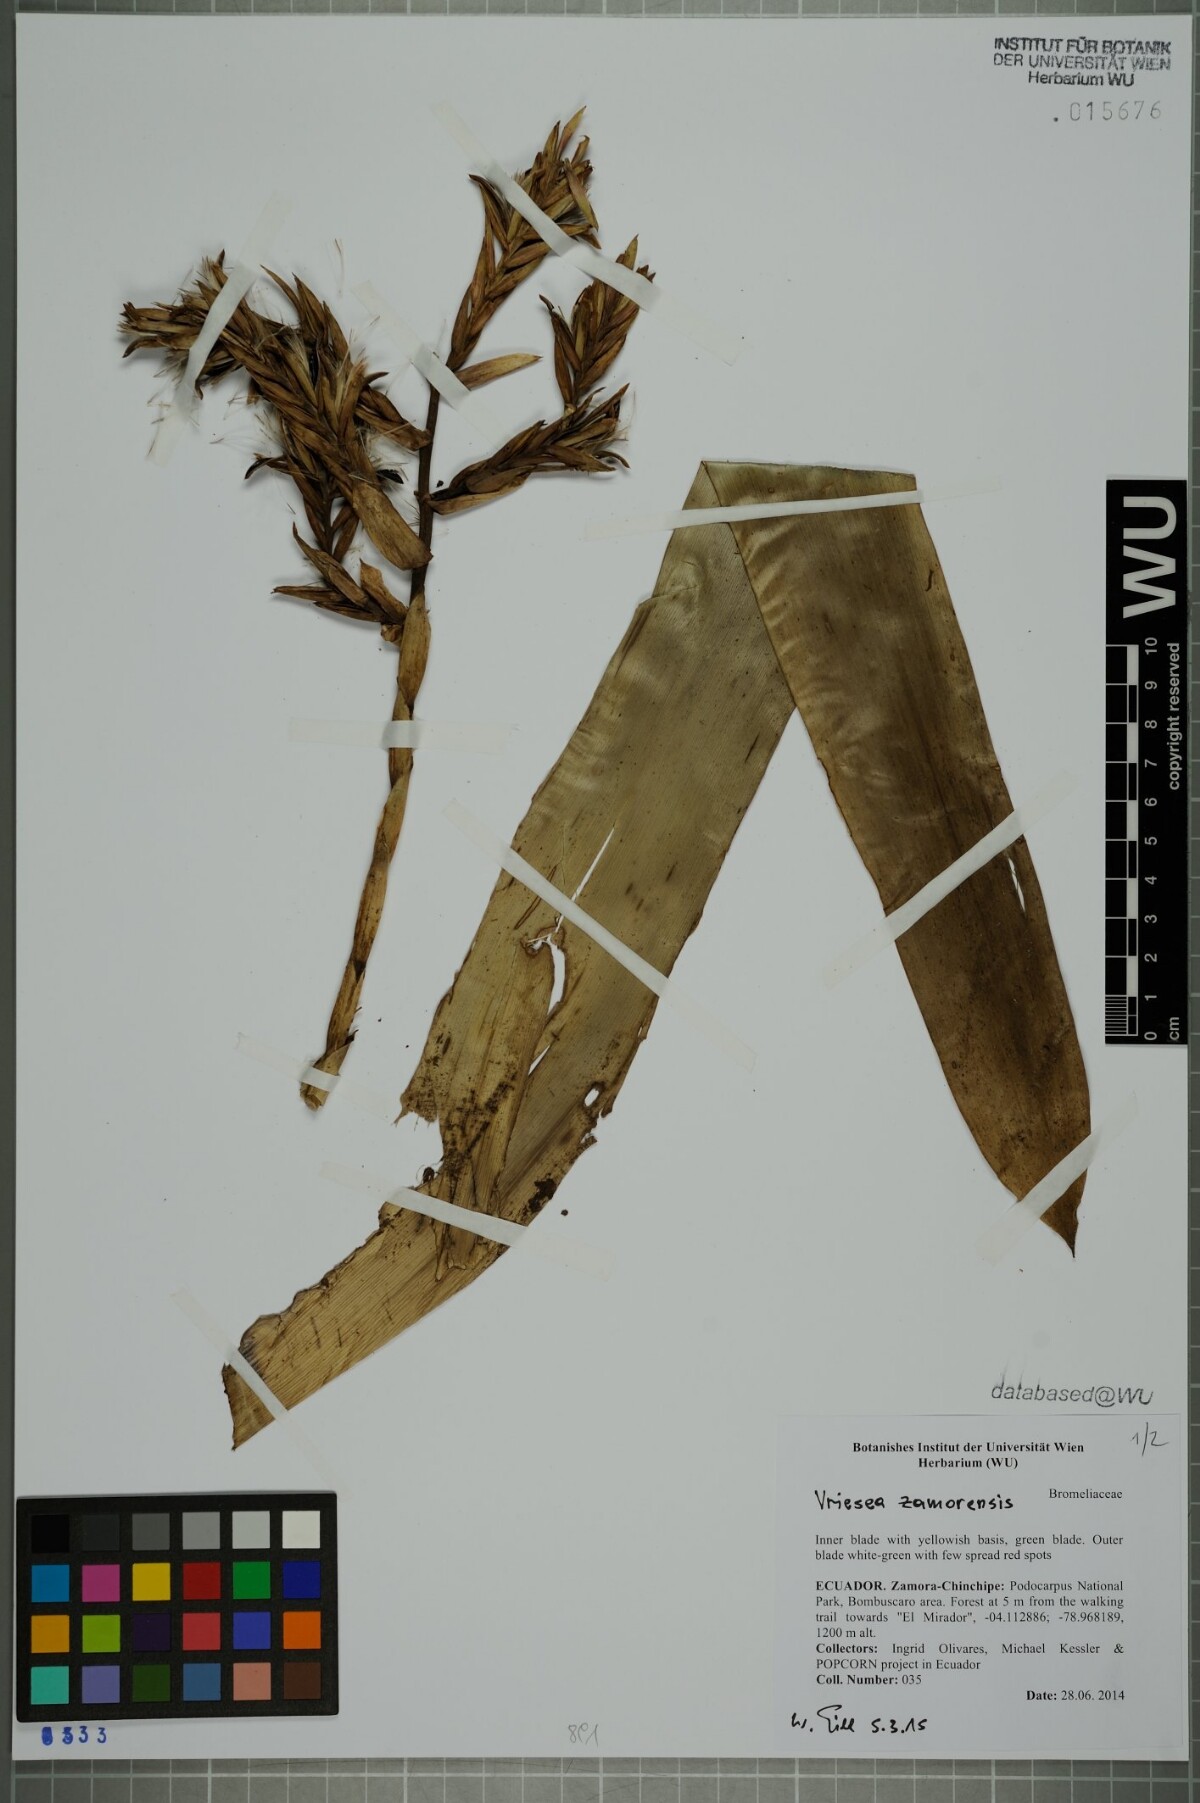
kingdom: Plantae
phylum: Tracheophyta
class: Liliopsida
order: Poales
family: Bromeliaceae
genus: Vriesea
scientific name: Vriesea zamorensis
